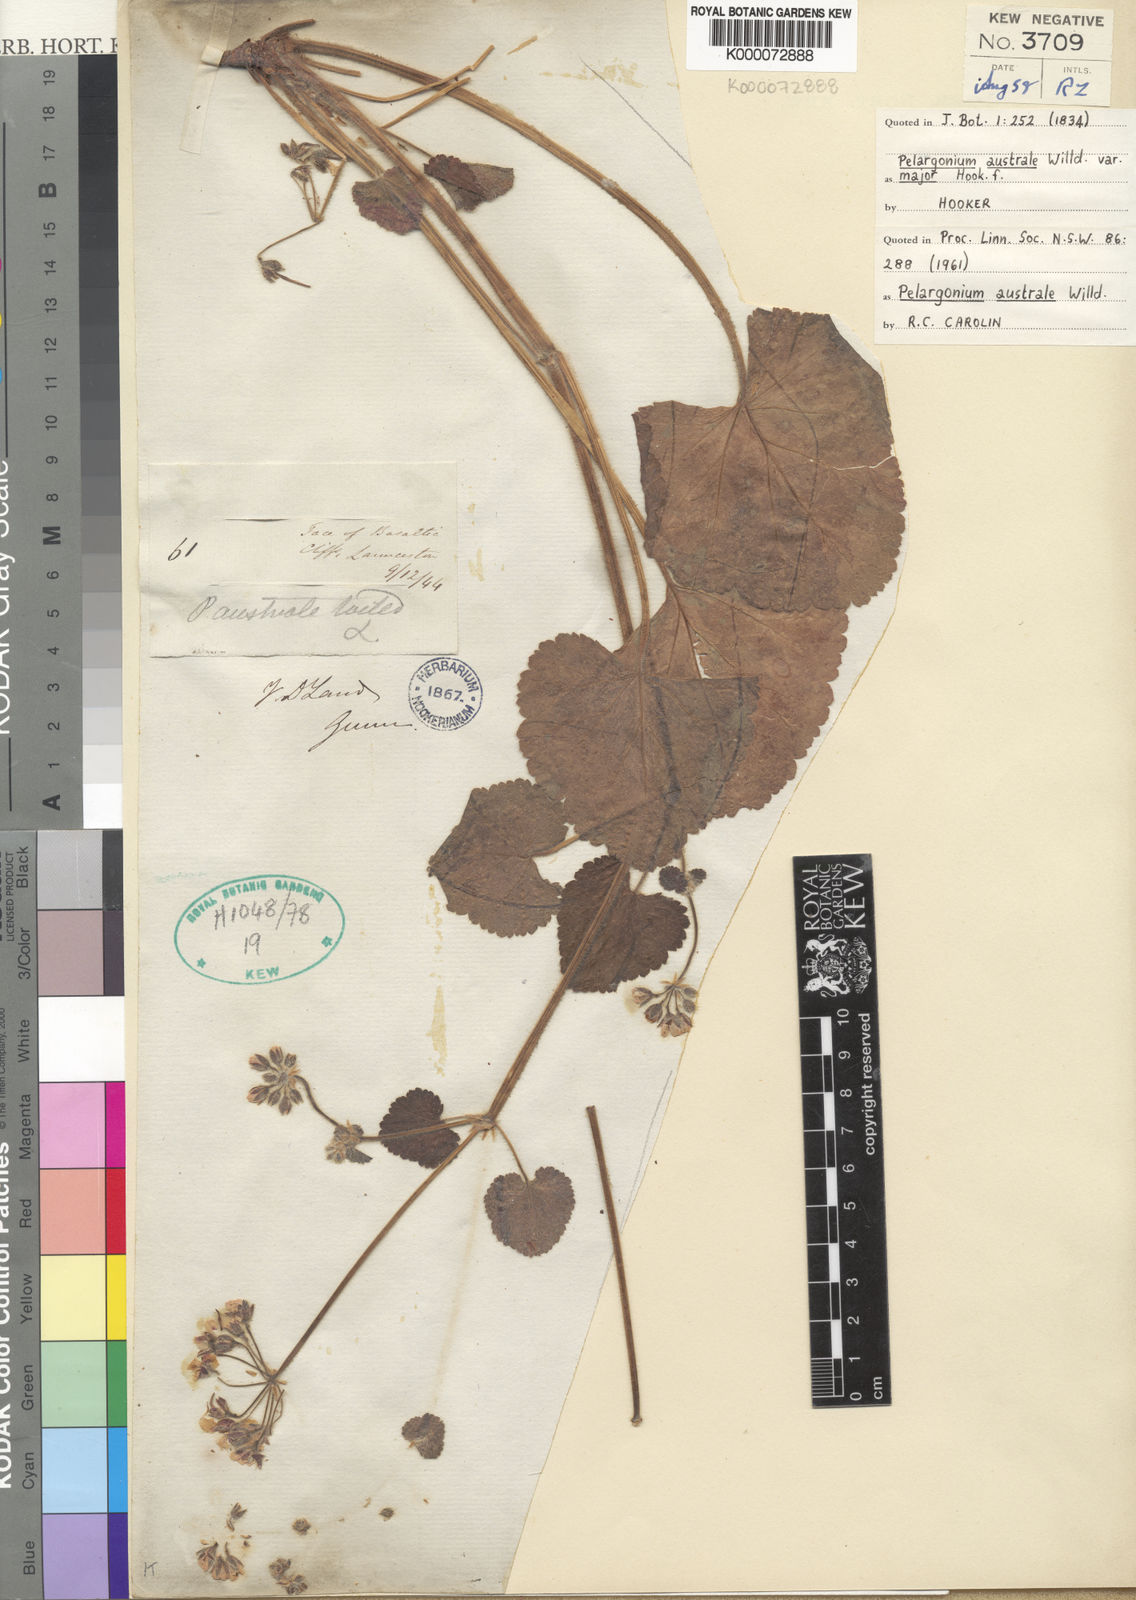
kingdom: Plantae
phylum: Tracheophyta
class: Magnoliopsida
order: Geraniales
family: Geraniaceae
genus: Pelargonium
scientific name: Pelargonium australe
